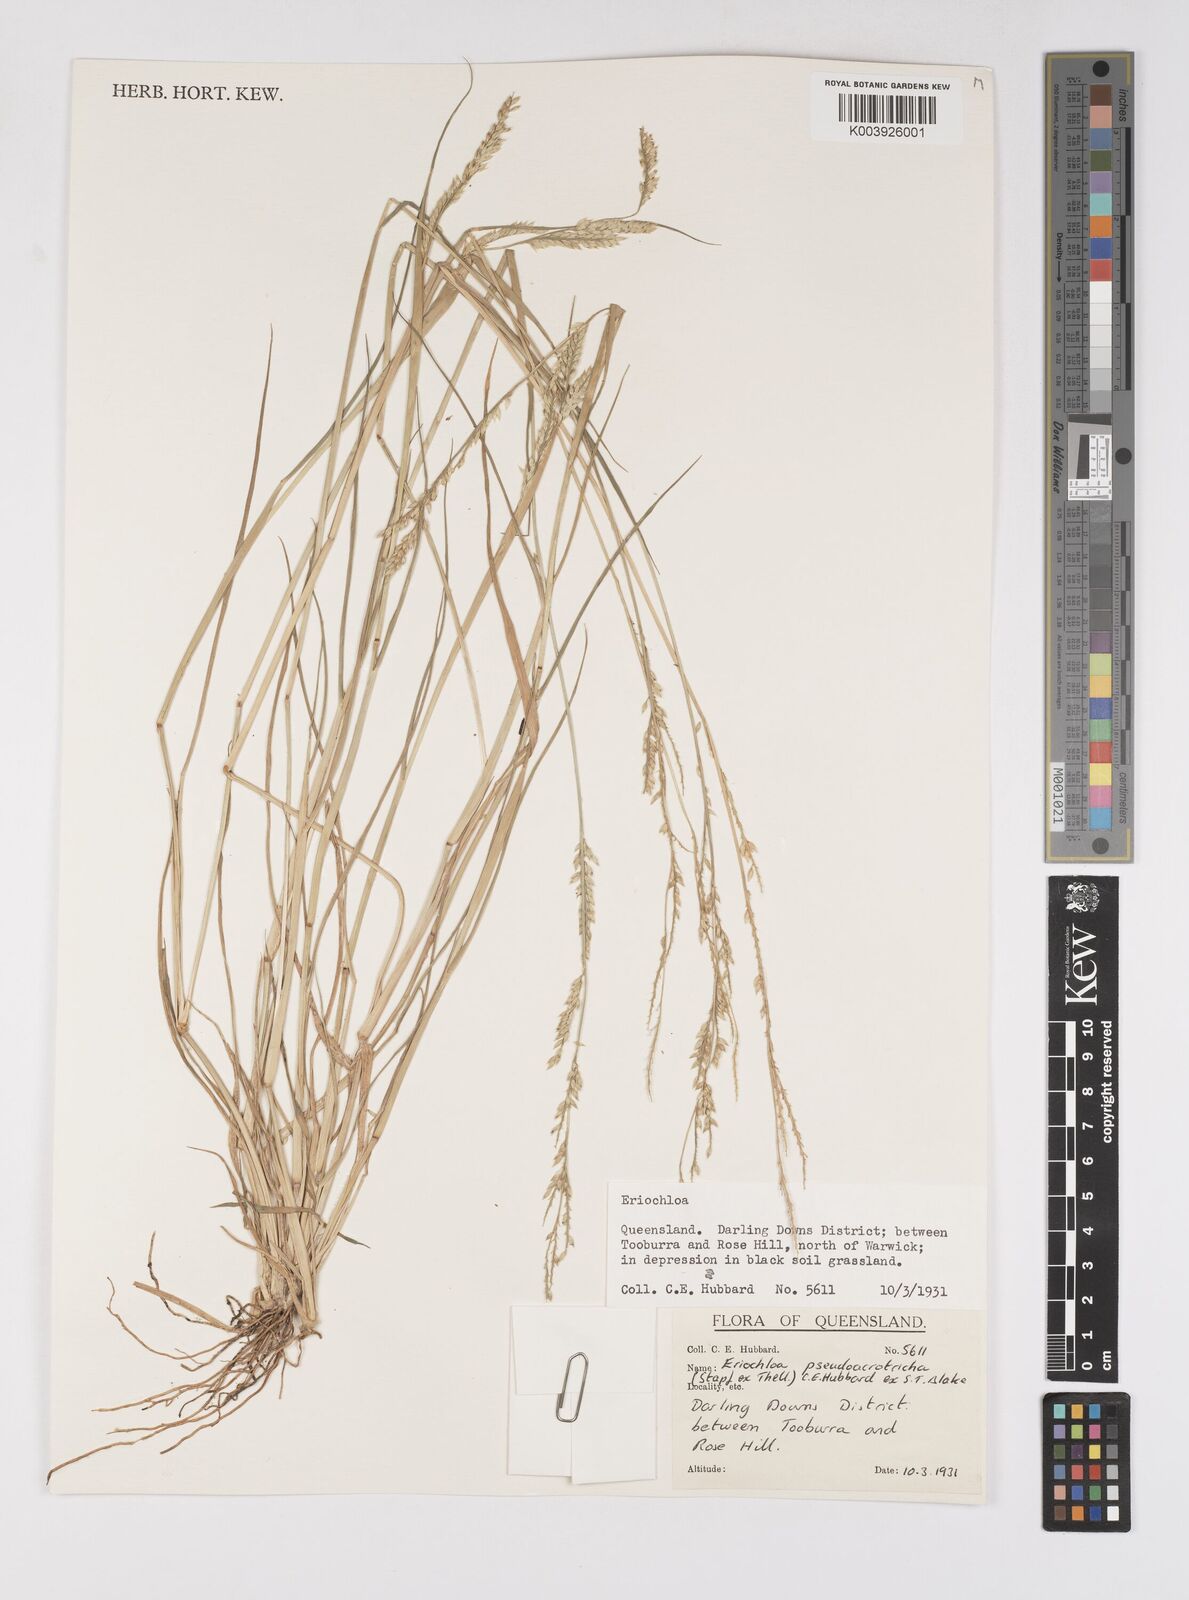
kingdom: Plantae
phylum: Tracheophyta
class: Liliopsida
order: Poales
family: Poaceae
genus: Eriochloa
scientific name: Eriochloa pseudoacrotricha
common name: Perennial cup-grass
